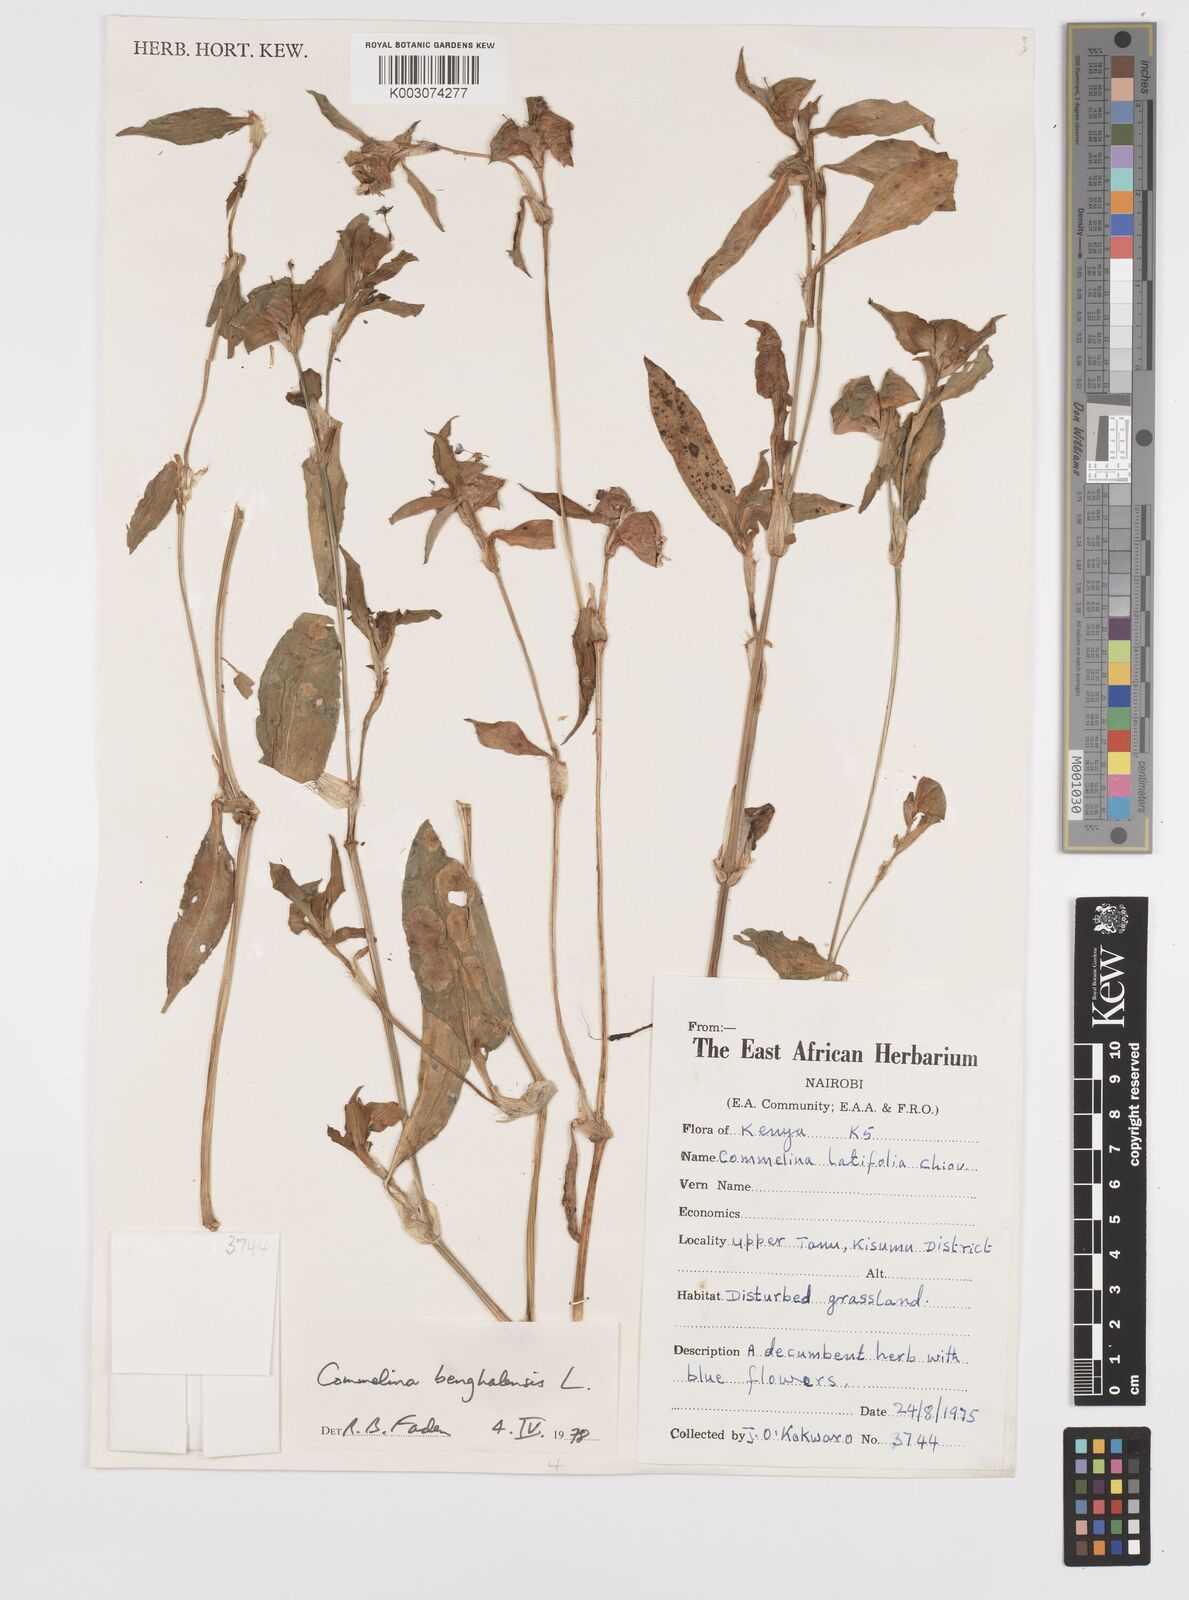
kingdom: Plantae
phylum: Tracheophyta
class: Liliopsida
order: Commelinales
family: Commelinaceae
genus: Commelina
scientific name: Commelina benghalensis
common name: Jio
